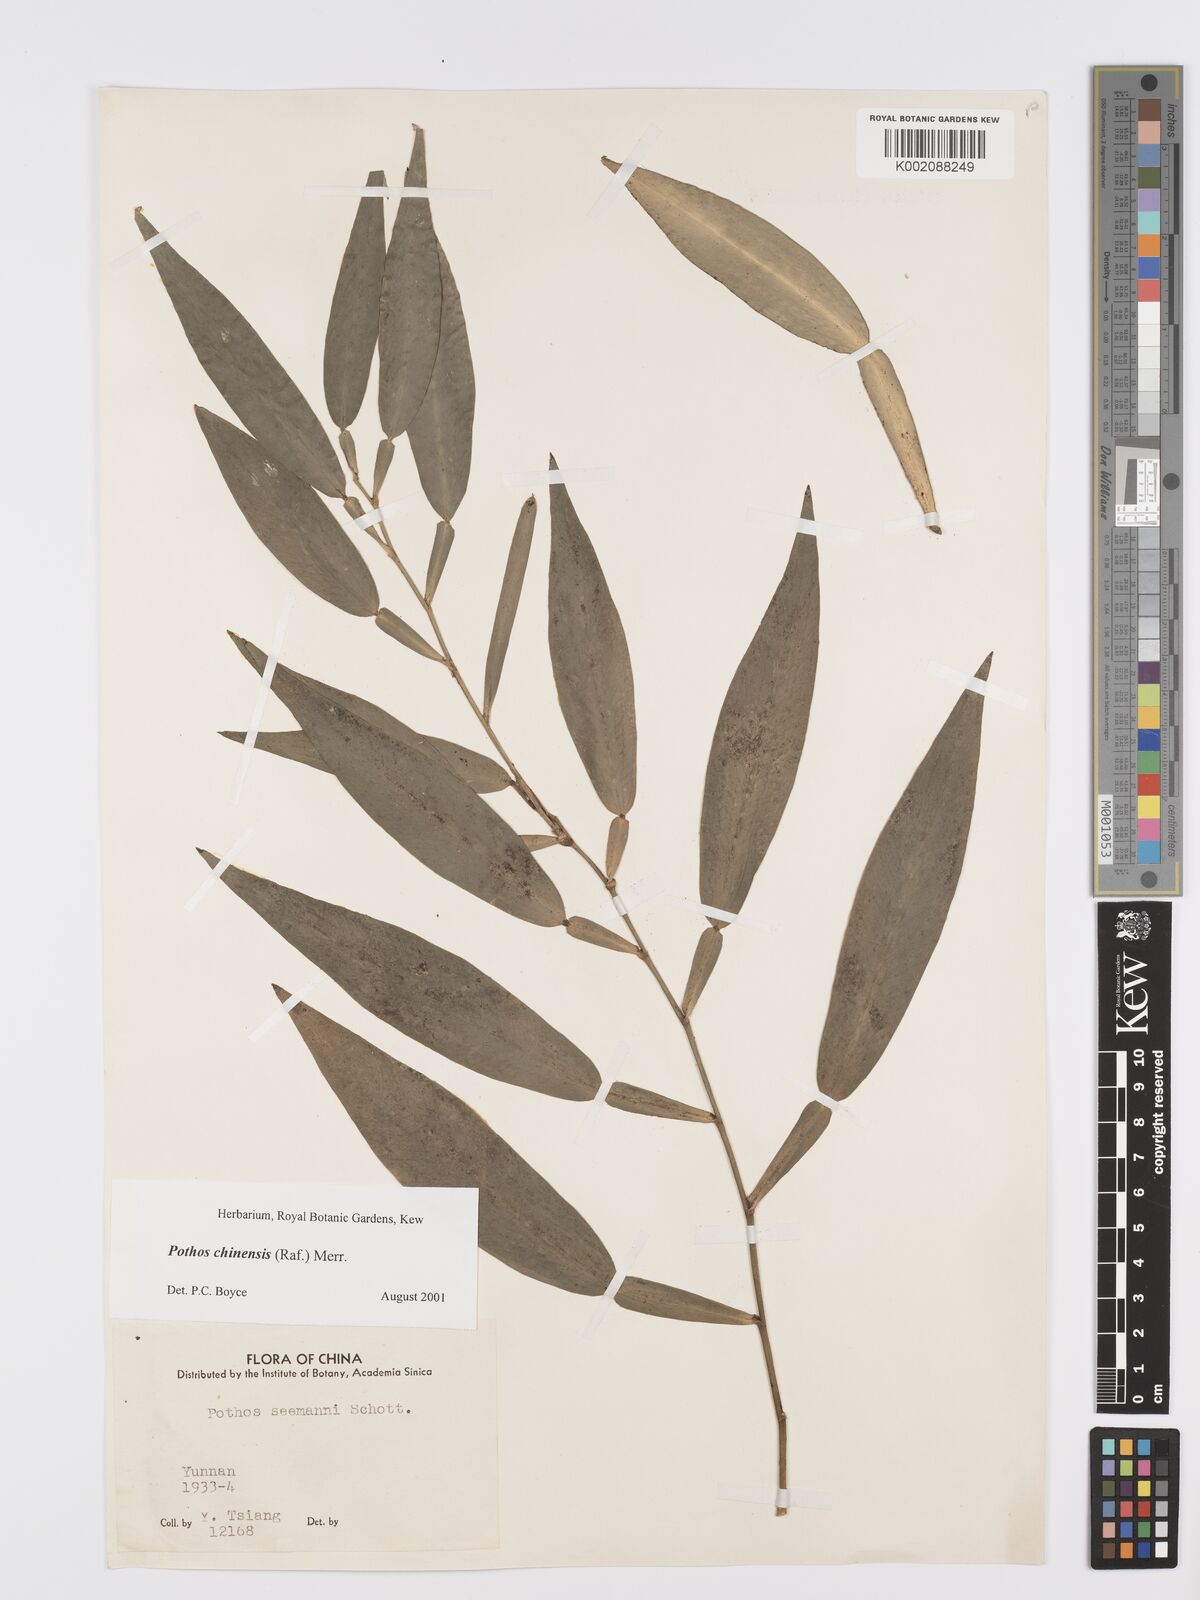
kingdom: Plantae
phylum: Tracheophyta
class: Liliopsida
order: Alismatales
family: Araceae
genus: Pothos
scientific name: Pothos chinensis
